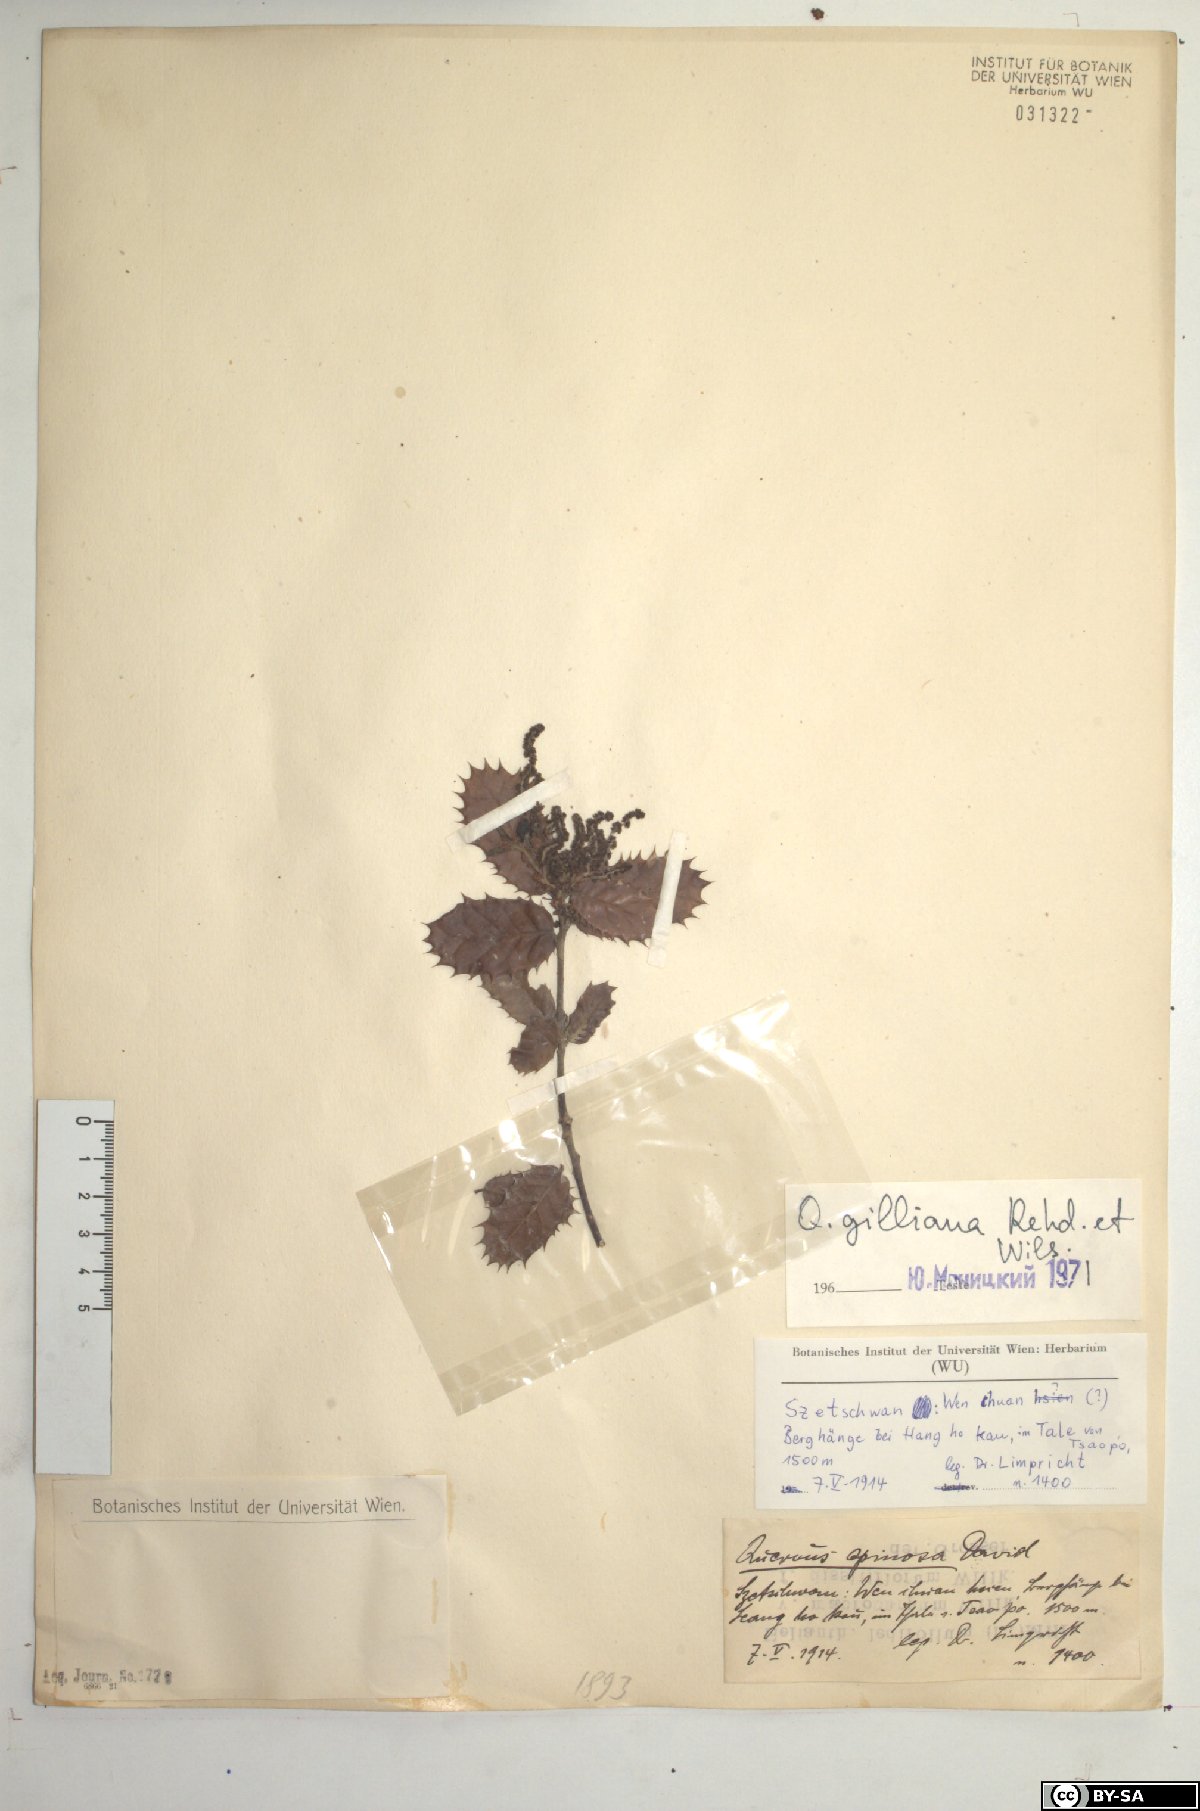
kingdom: Plantae
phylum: Tracheophyta
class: Magnoliopsida
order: Fagales
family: Fagaceae
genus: Quercus
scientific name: Quercus spinosa
